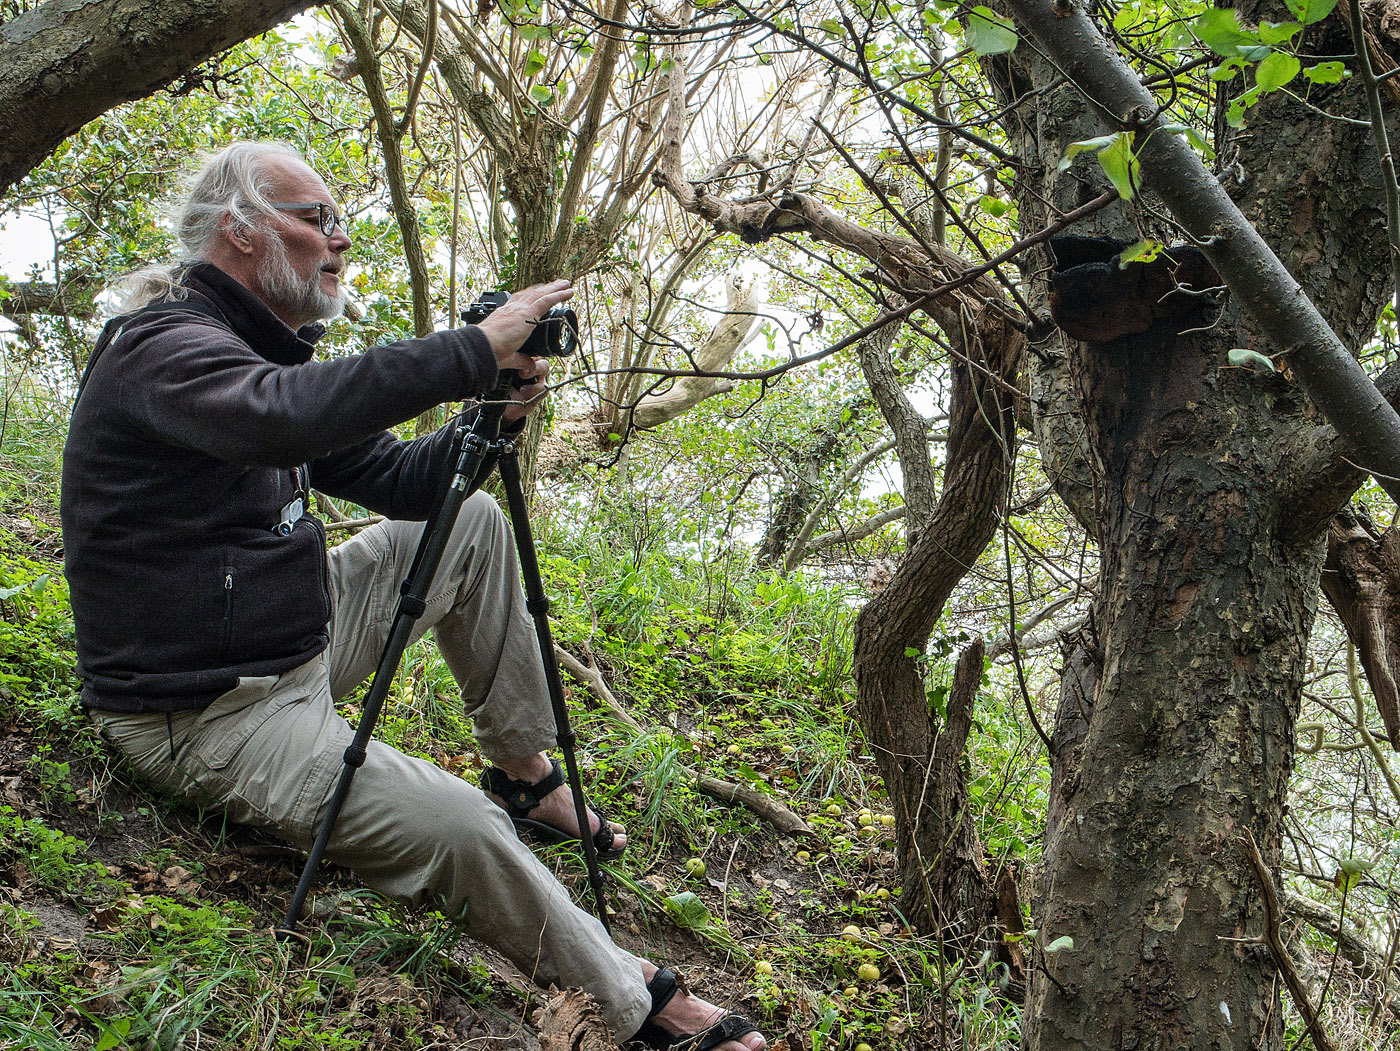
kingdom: Fungi
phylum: Basidiomycota
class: Agaricomycetes
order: Hymenochaetales
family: Hymenochaetaceae
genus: Inonotus
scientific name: Inonotus hispidus
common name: børstehåret spejlporesvamp
